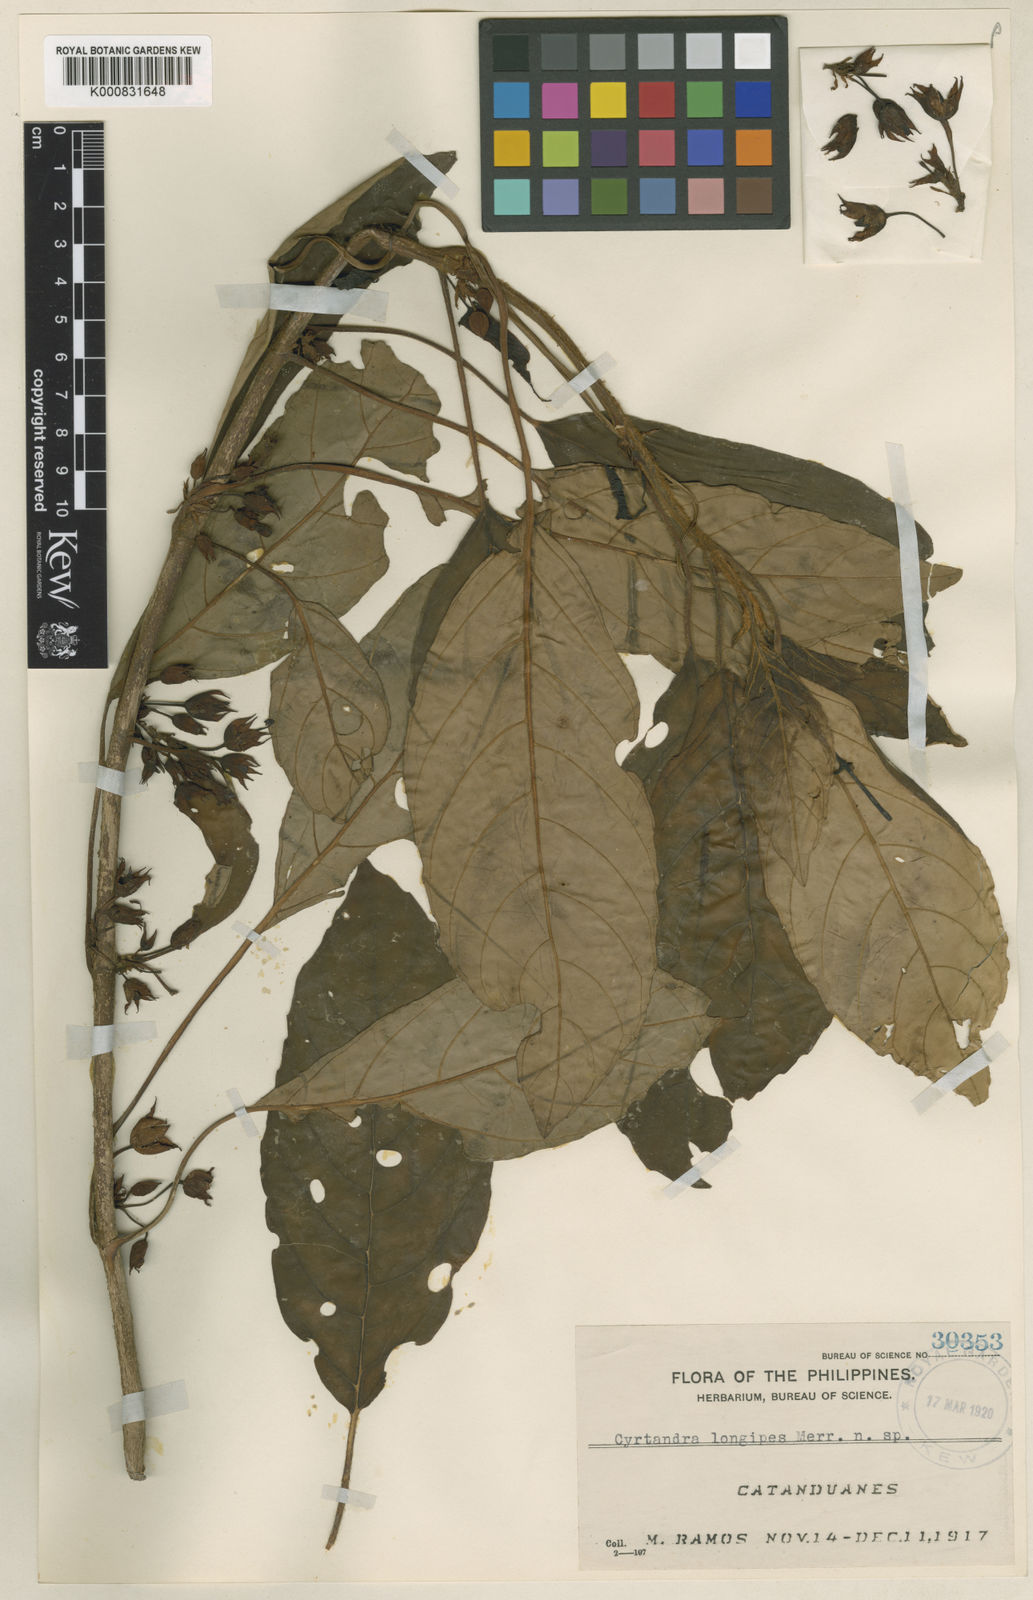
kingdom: Plantae
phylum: Tracheophyta
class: Magnoliopsida
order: Lamiales
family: Gesneriaceae
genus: Cyrtandra
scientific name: Cyrtandra longipes
